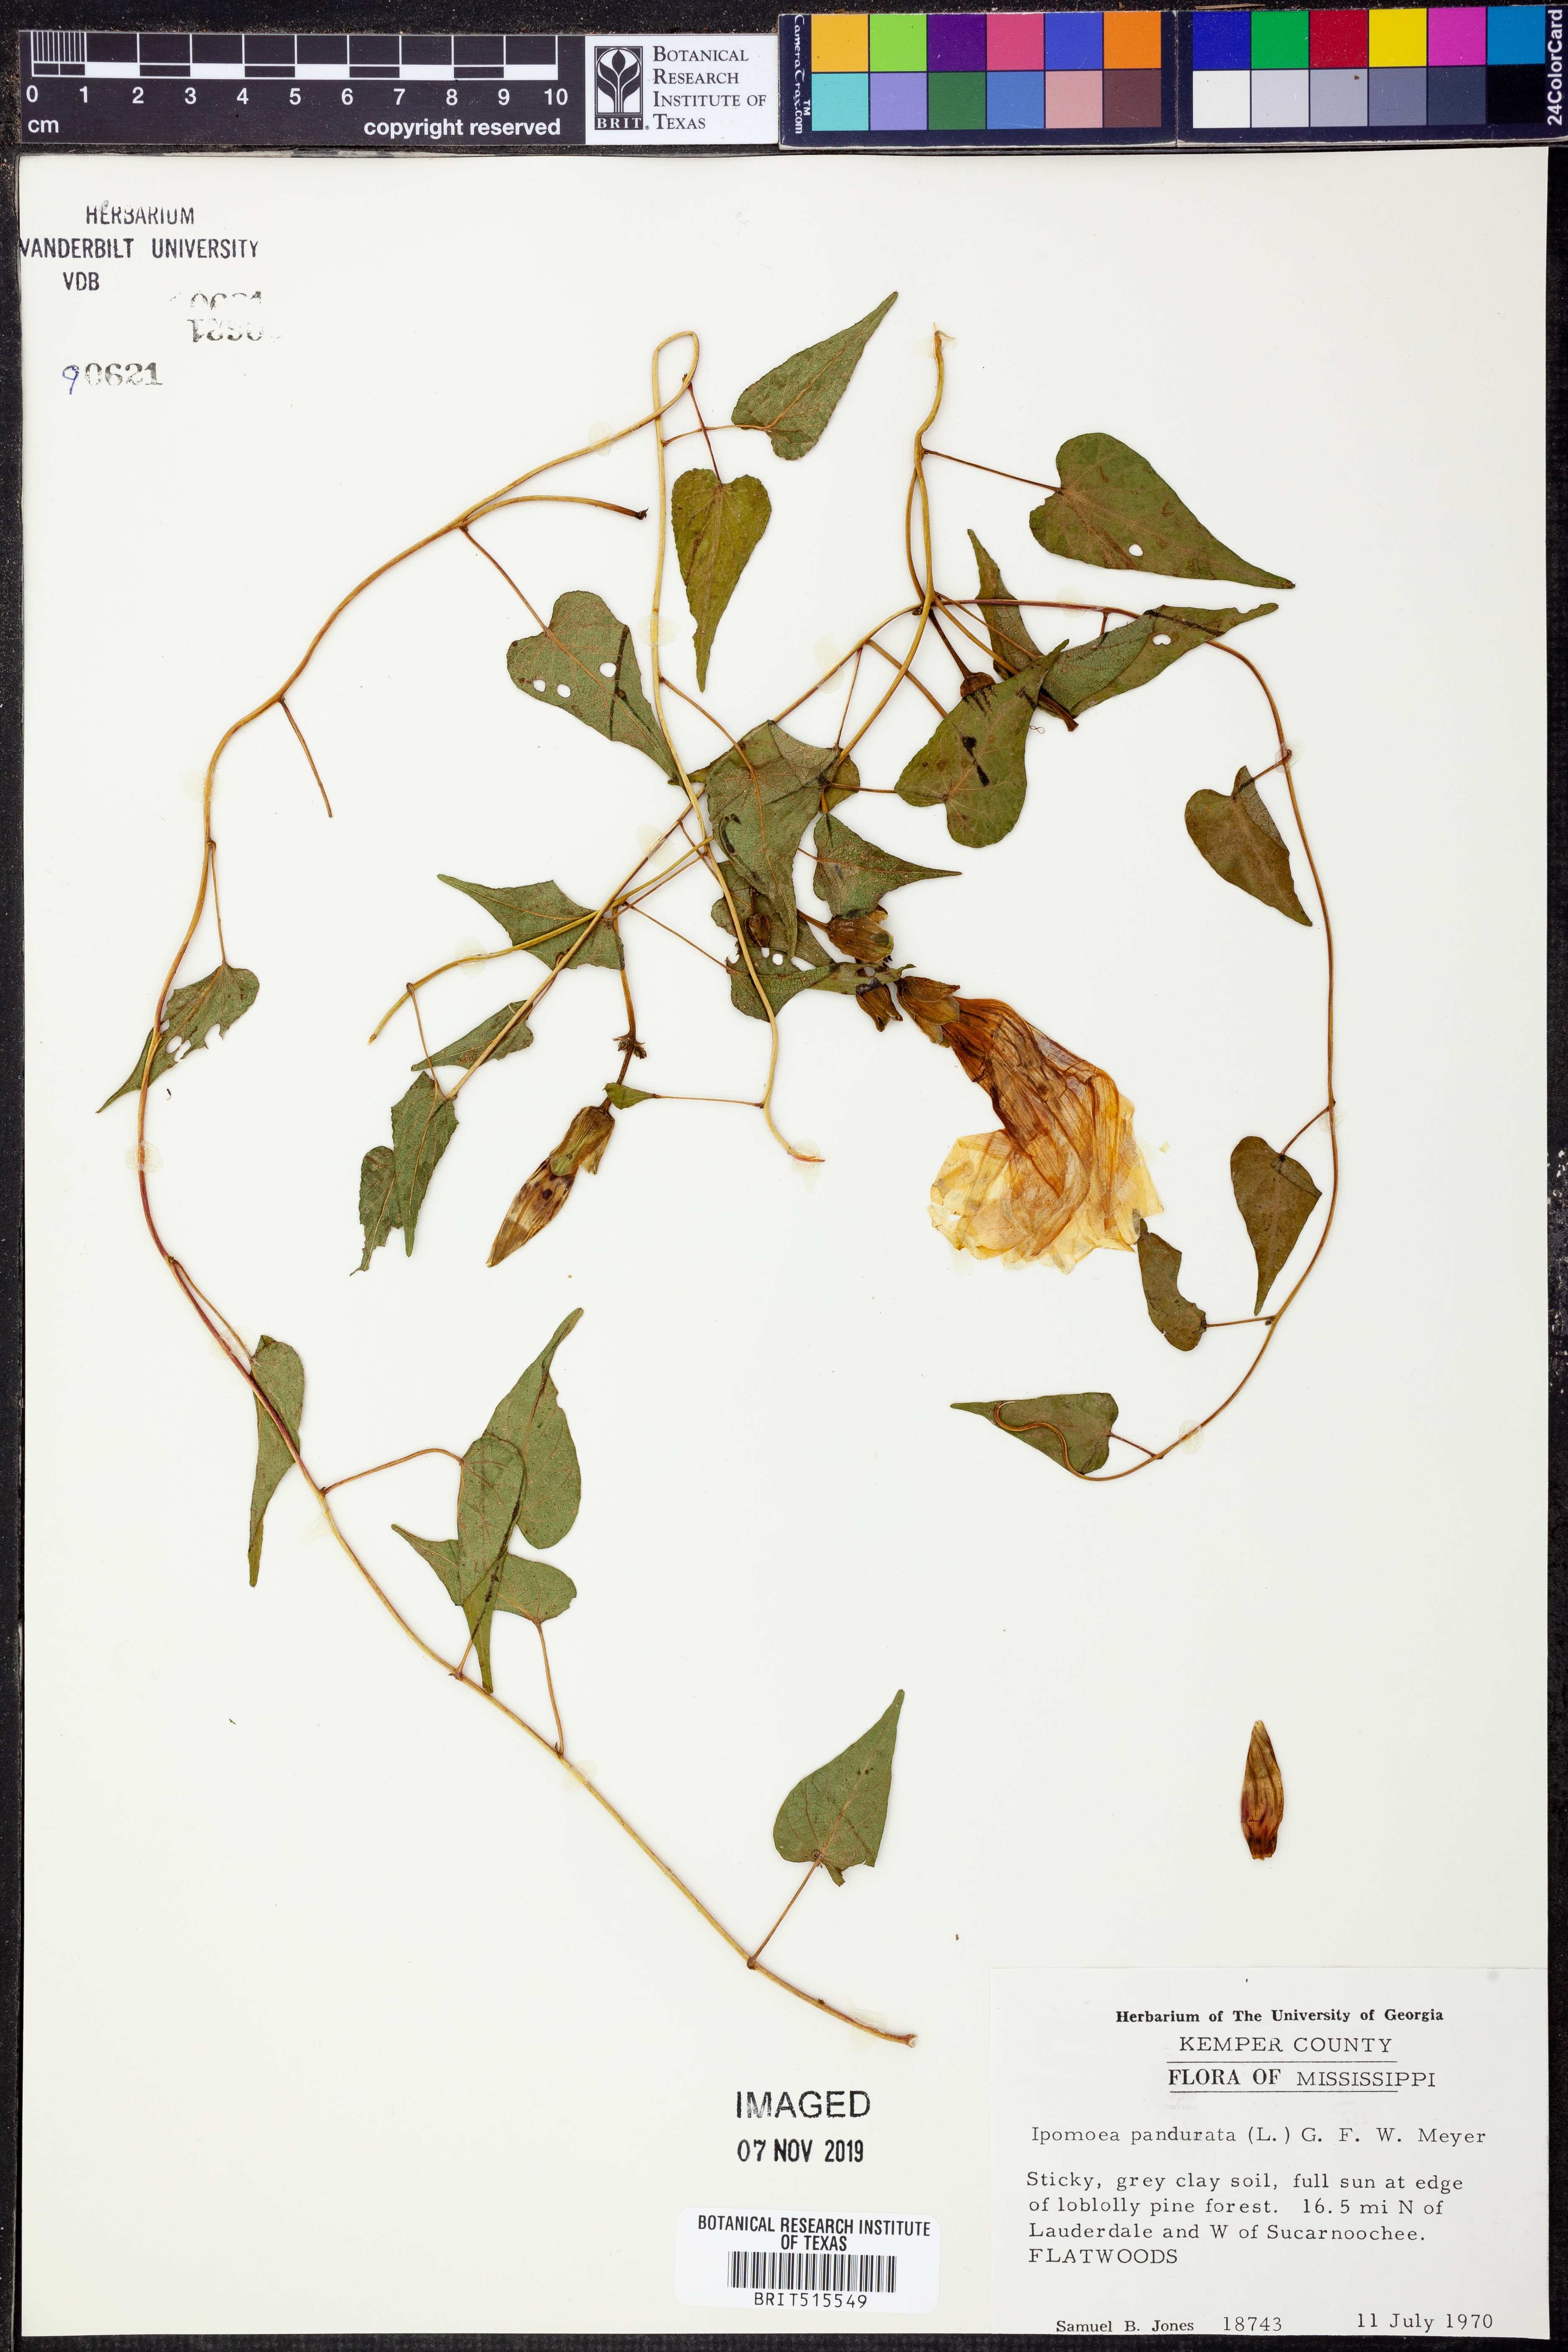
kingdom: Plantae
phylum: Tracheophyta
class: Magnoliopsida
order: Solanales
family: Convolvulaceae
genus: Ipomoea
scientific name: Ipomoea pandurata
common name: Man-of-the-earth
